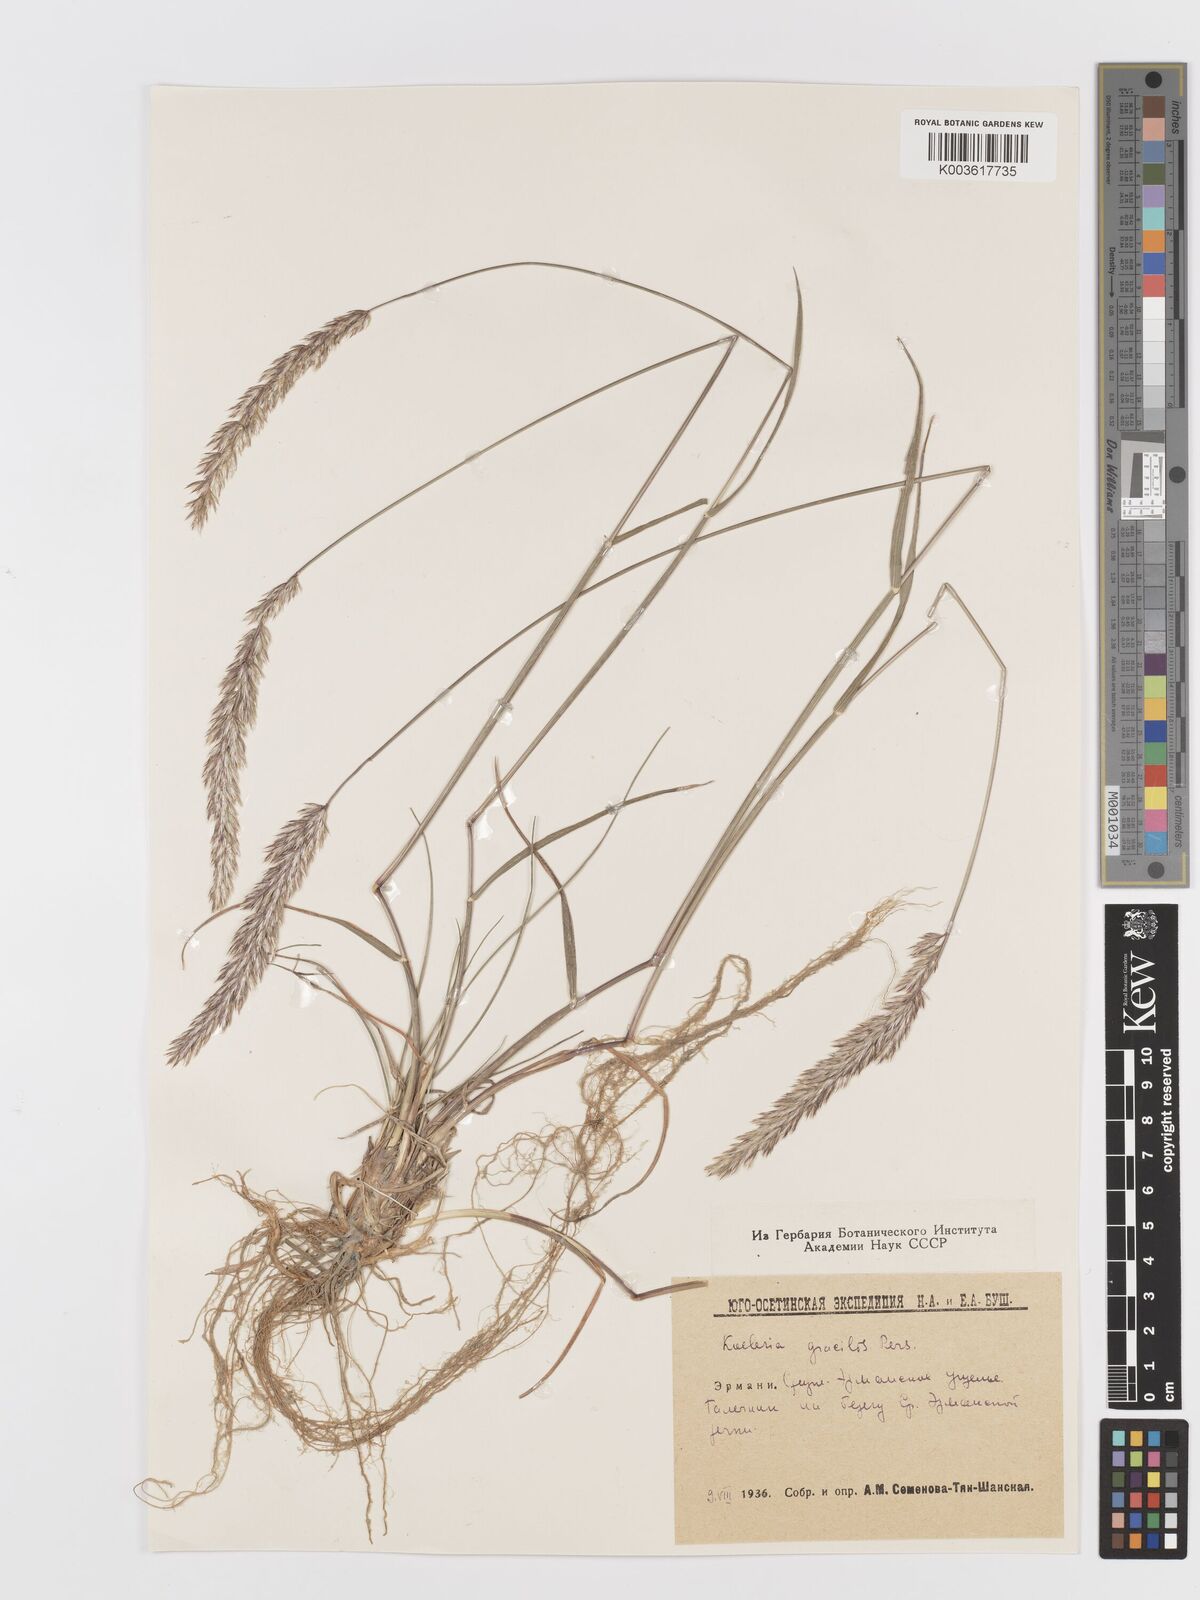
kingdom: Plantae
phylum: Tracheophyta
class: Liliopsida
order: Poales
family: Poaceae
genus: Koeleria
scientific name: Koeleria splendens
